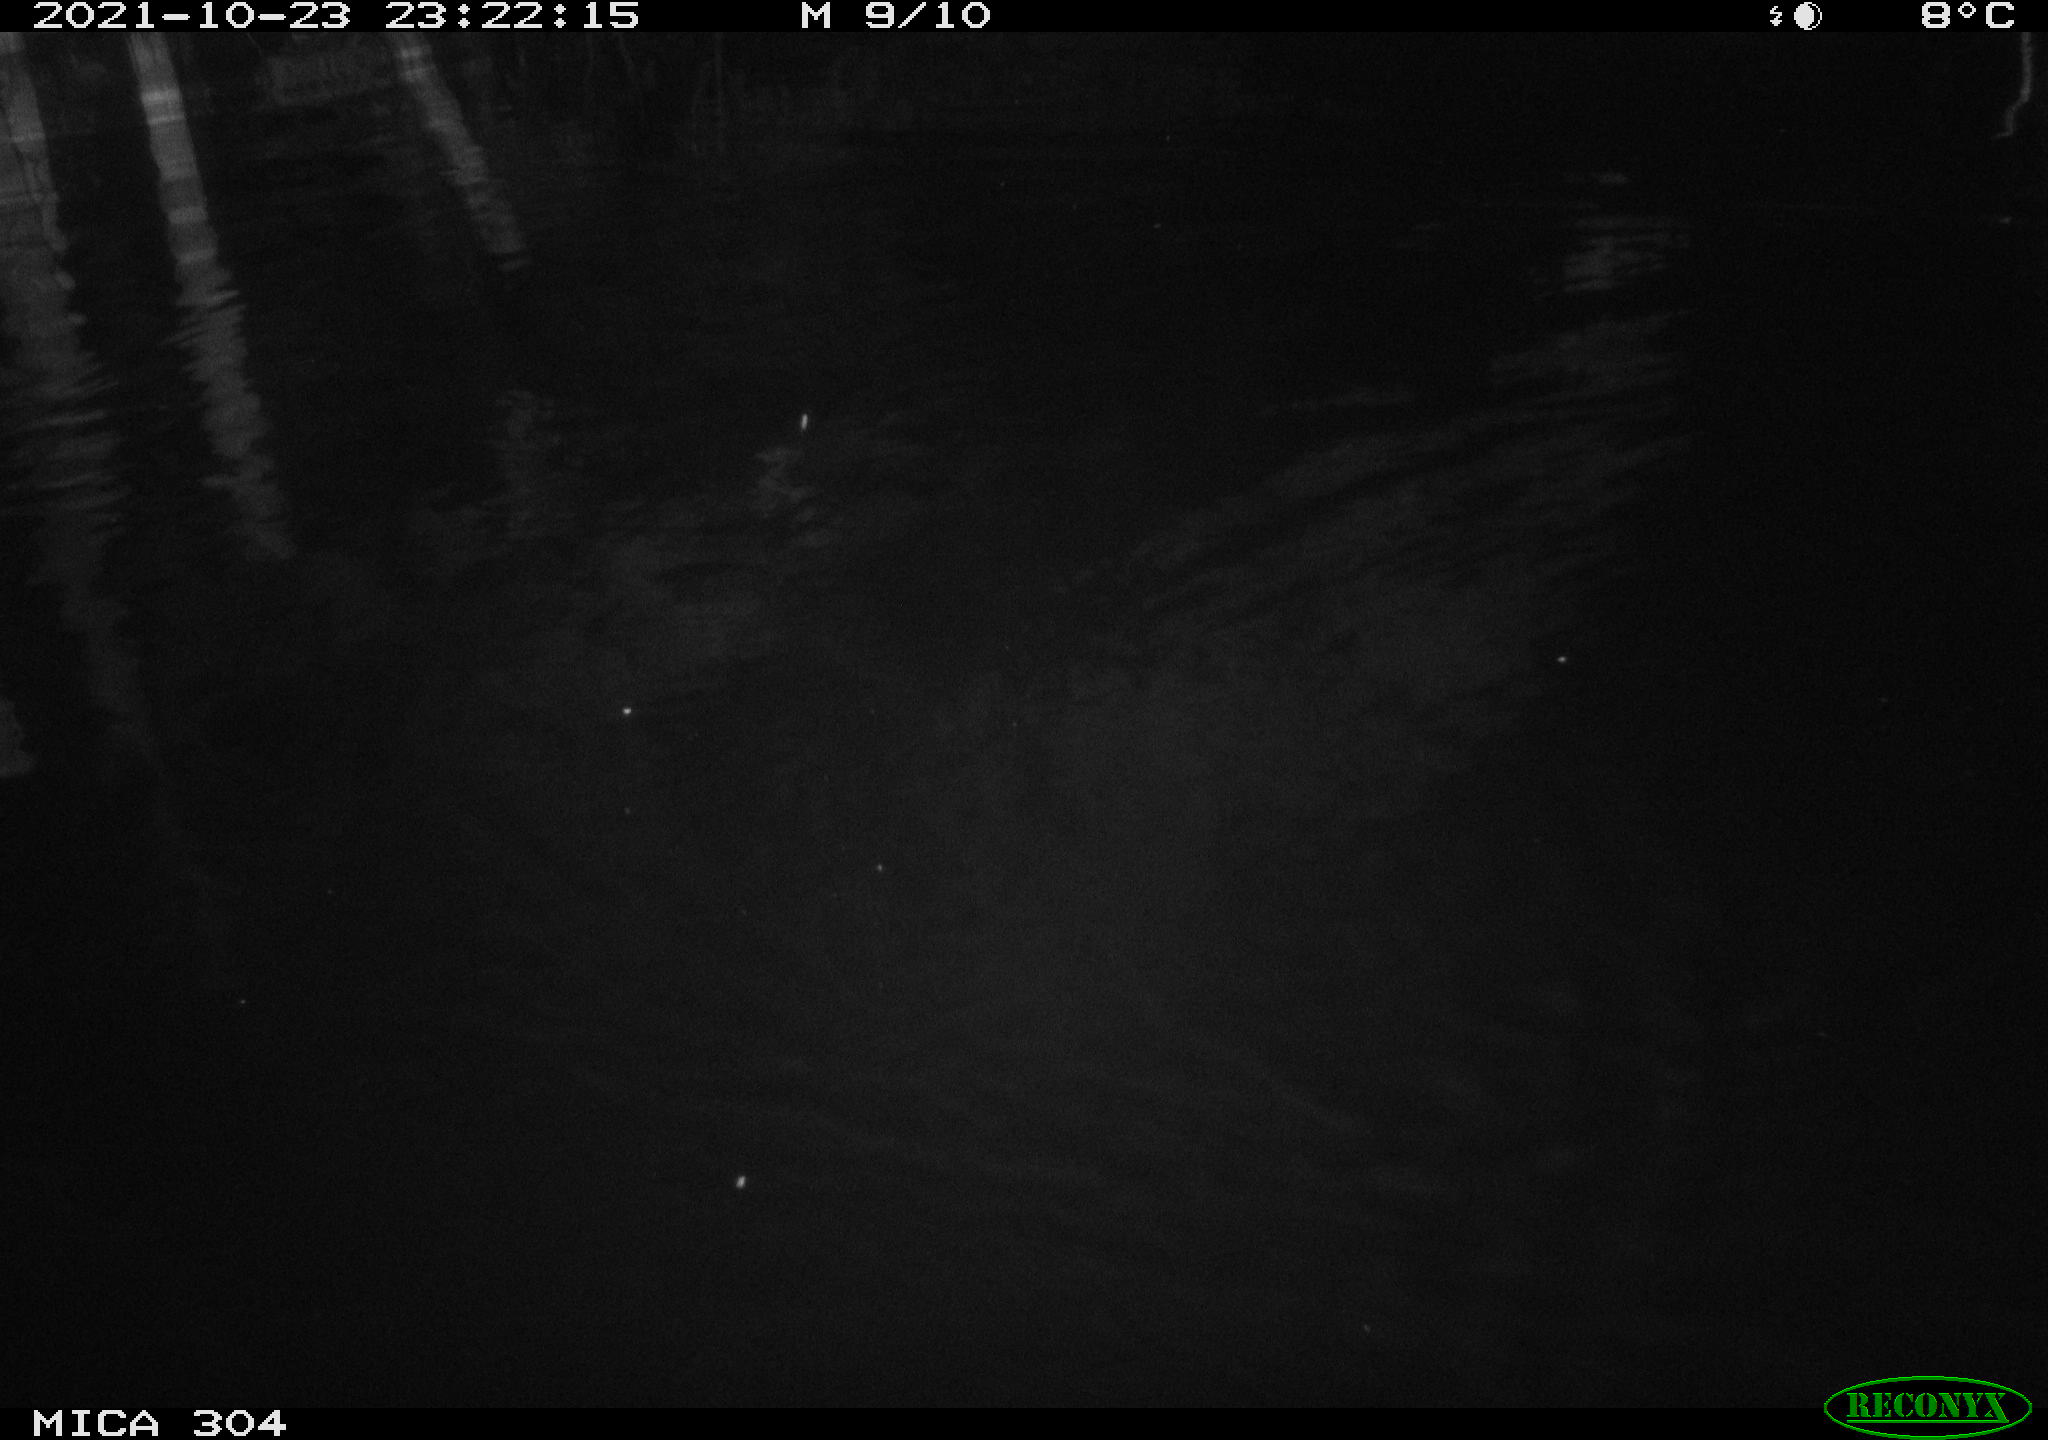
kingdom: Animalia
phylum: Chordata
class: Mammalia
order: Rodentia
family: Muridae
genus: Rattus
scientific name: Rattus norvegicus
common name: Brown rat
